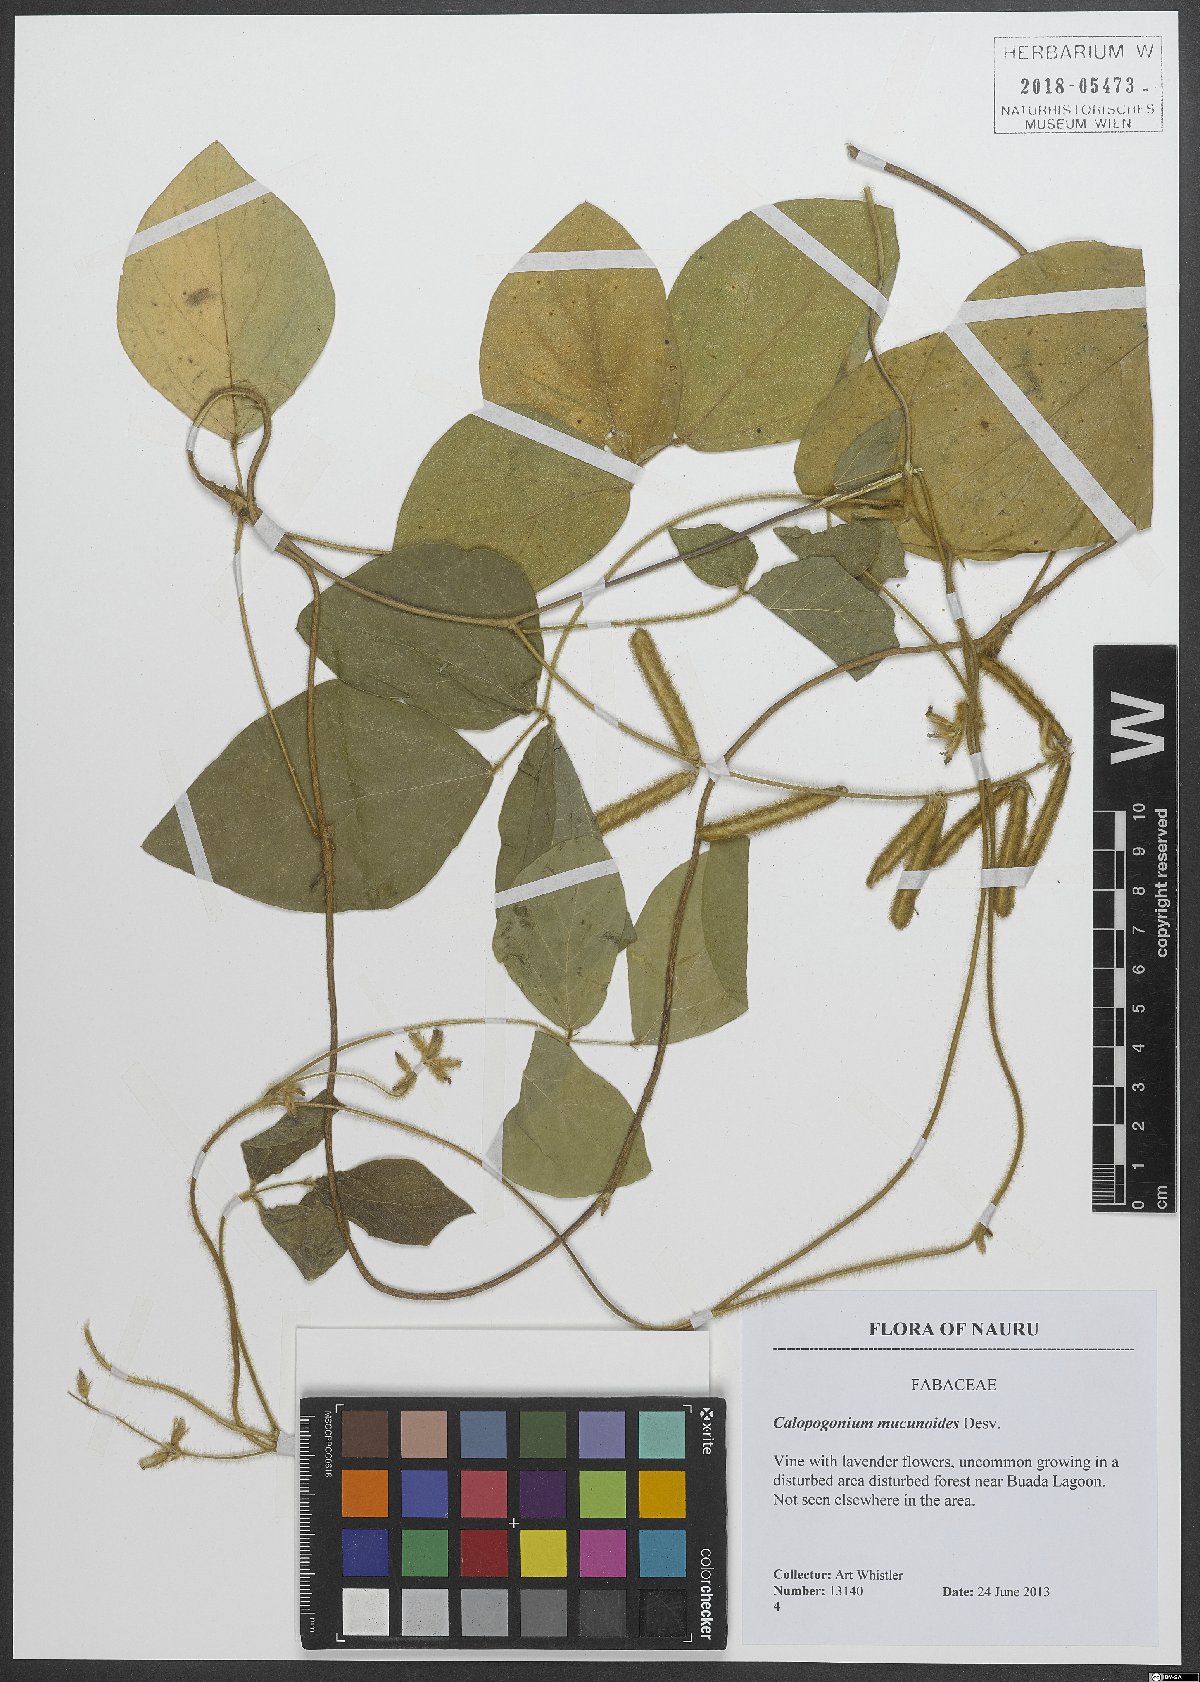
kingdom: Plantae
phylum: Tracheophyta
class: Magnoliopsida
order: Fabales
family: Fabaceae
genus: Calopogonium
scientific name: Calopogonium mucunoides
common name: Calopo
